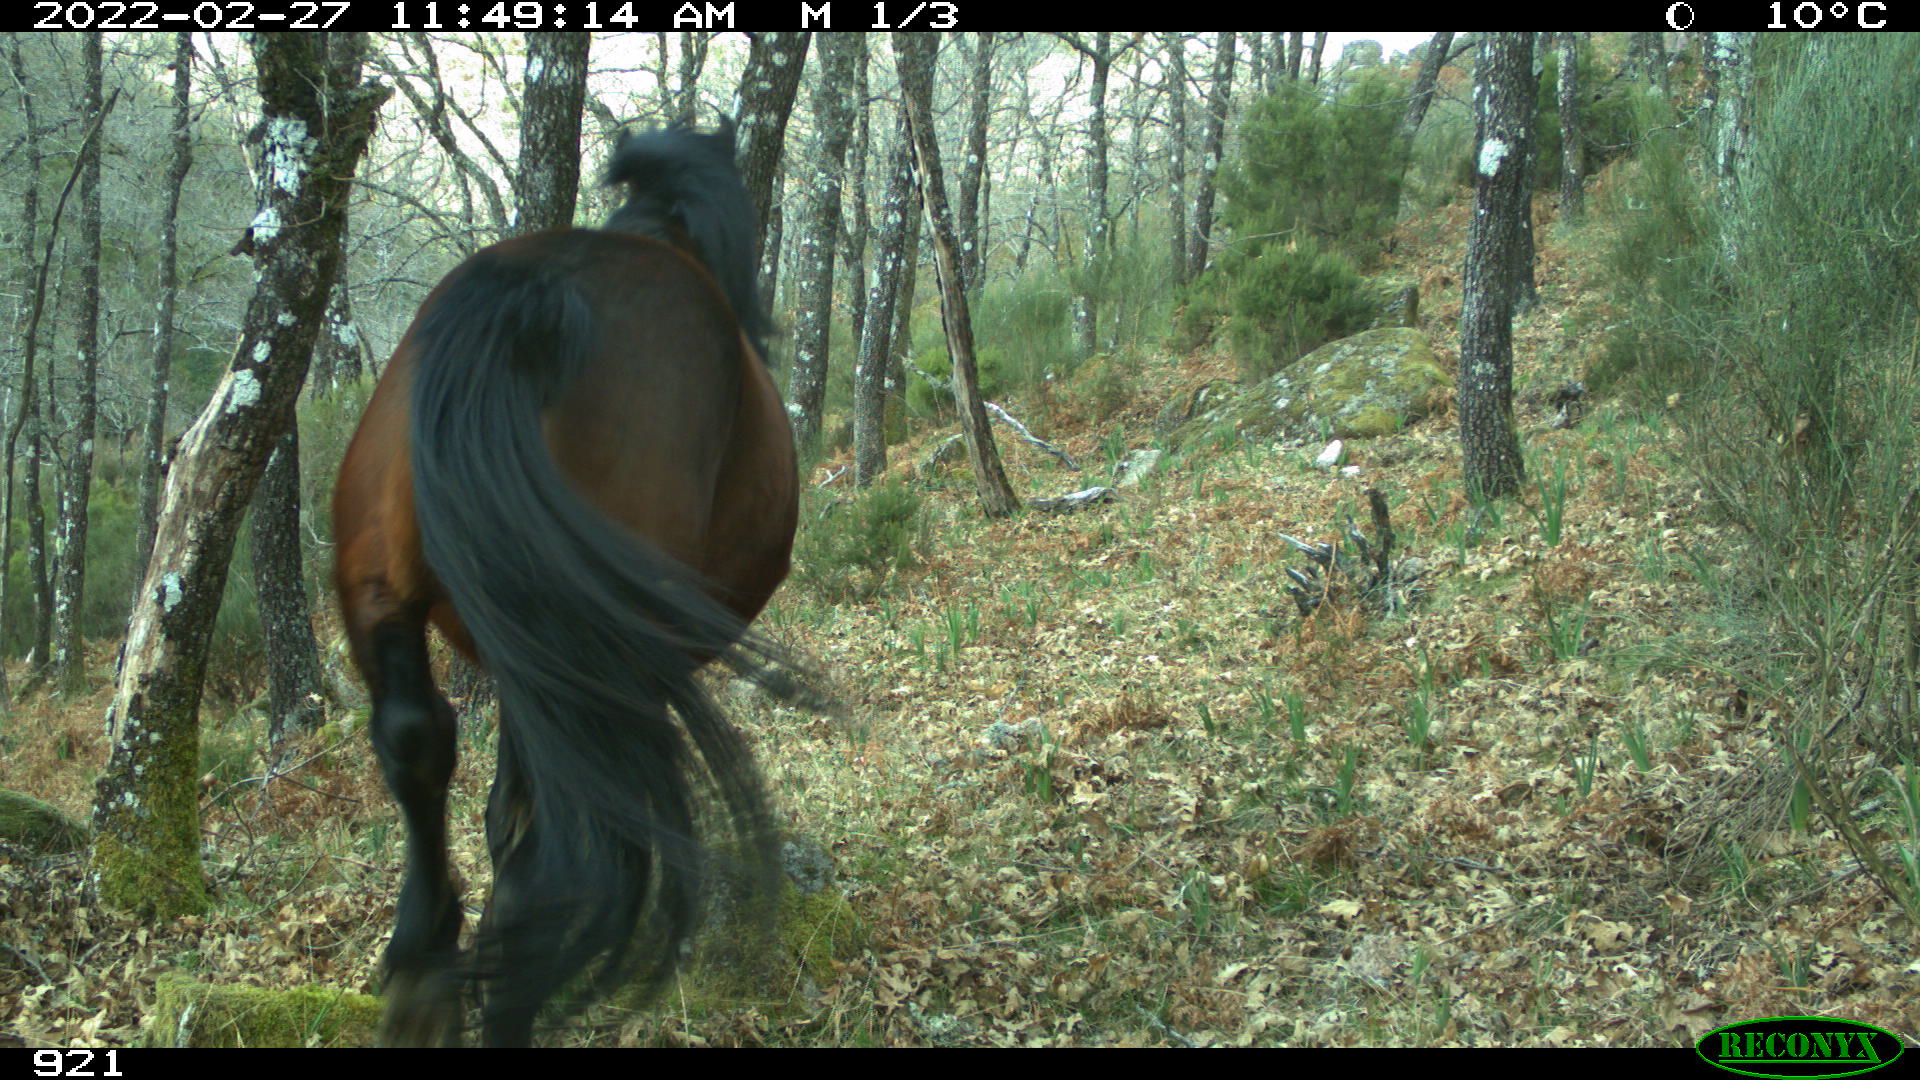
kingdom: Animalia
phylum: Chordata
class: Mammalia
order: Perissodactyla
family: Equidae
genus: Equus
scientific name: Equus caballus
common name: Horse
